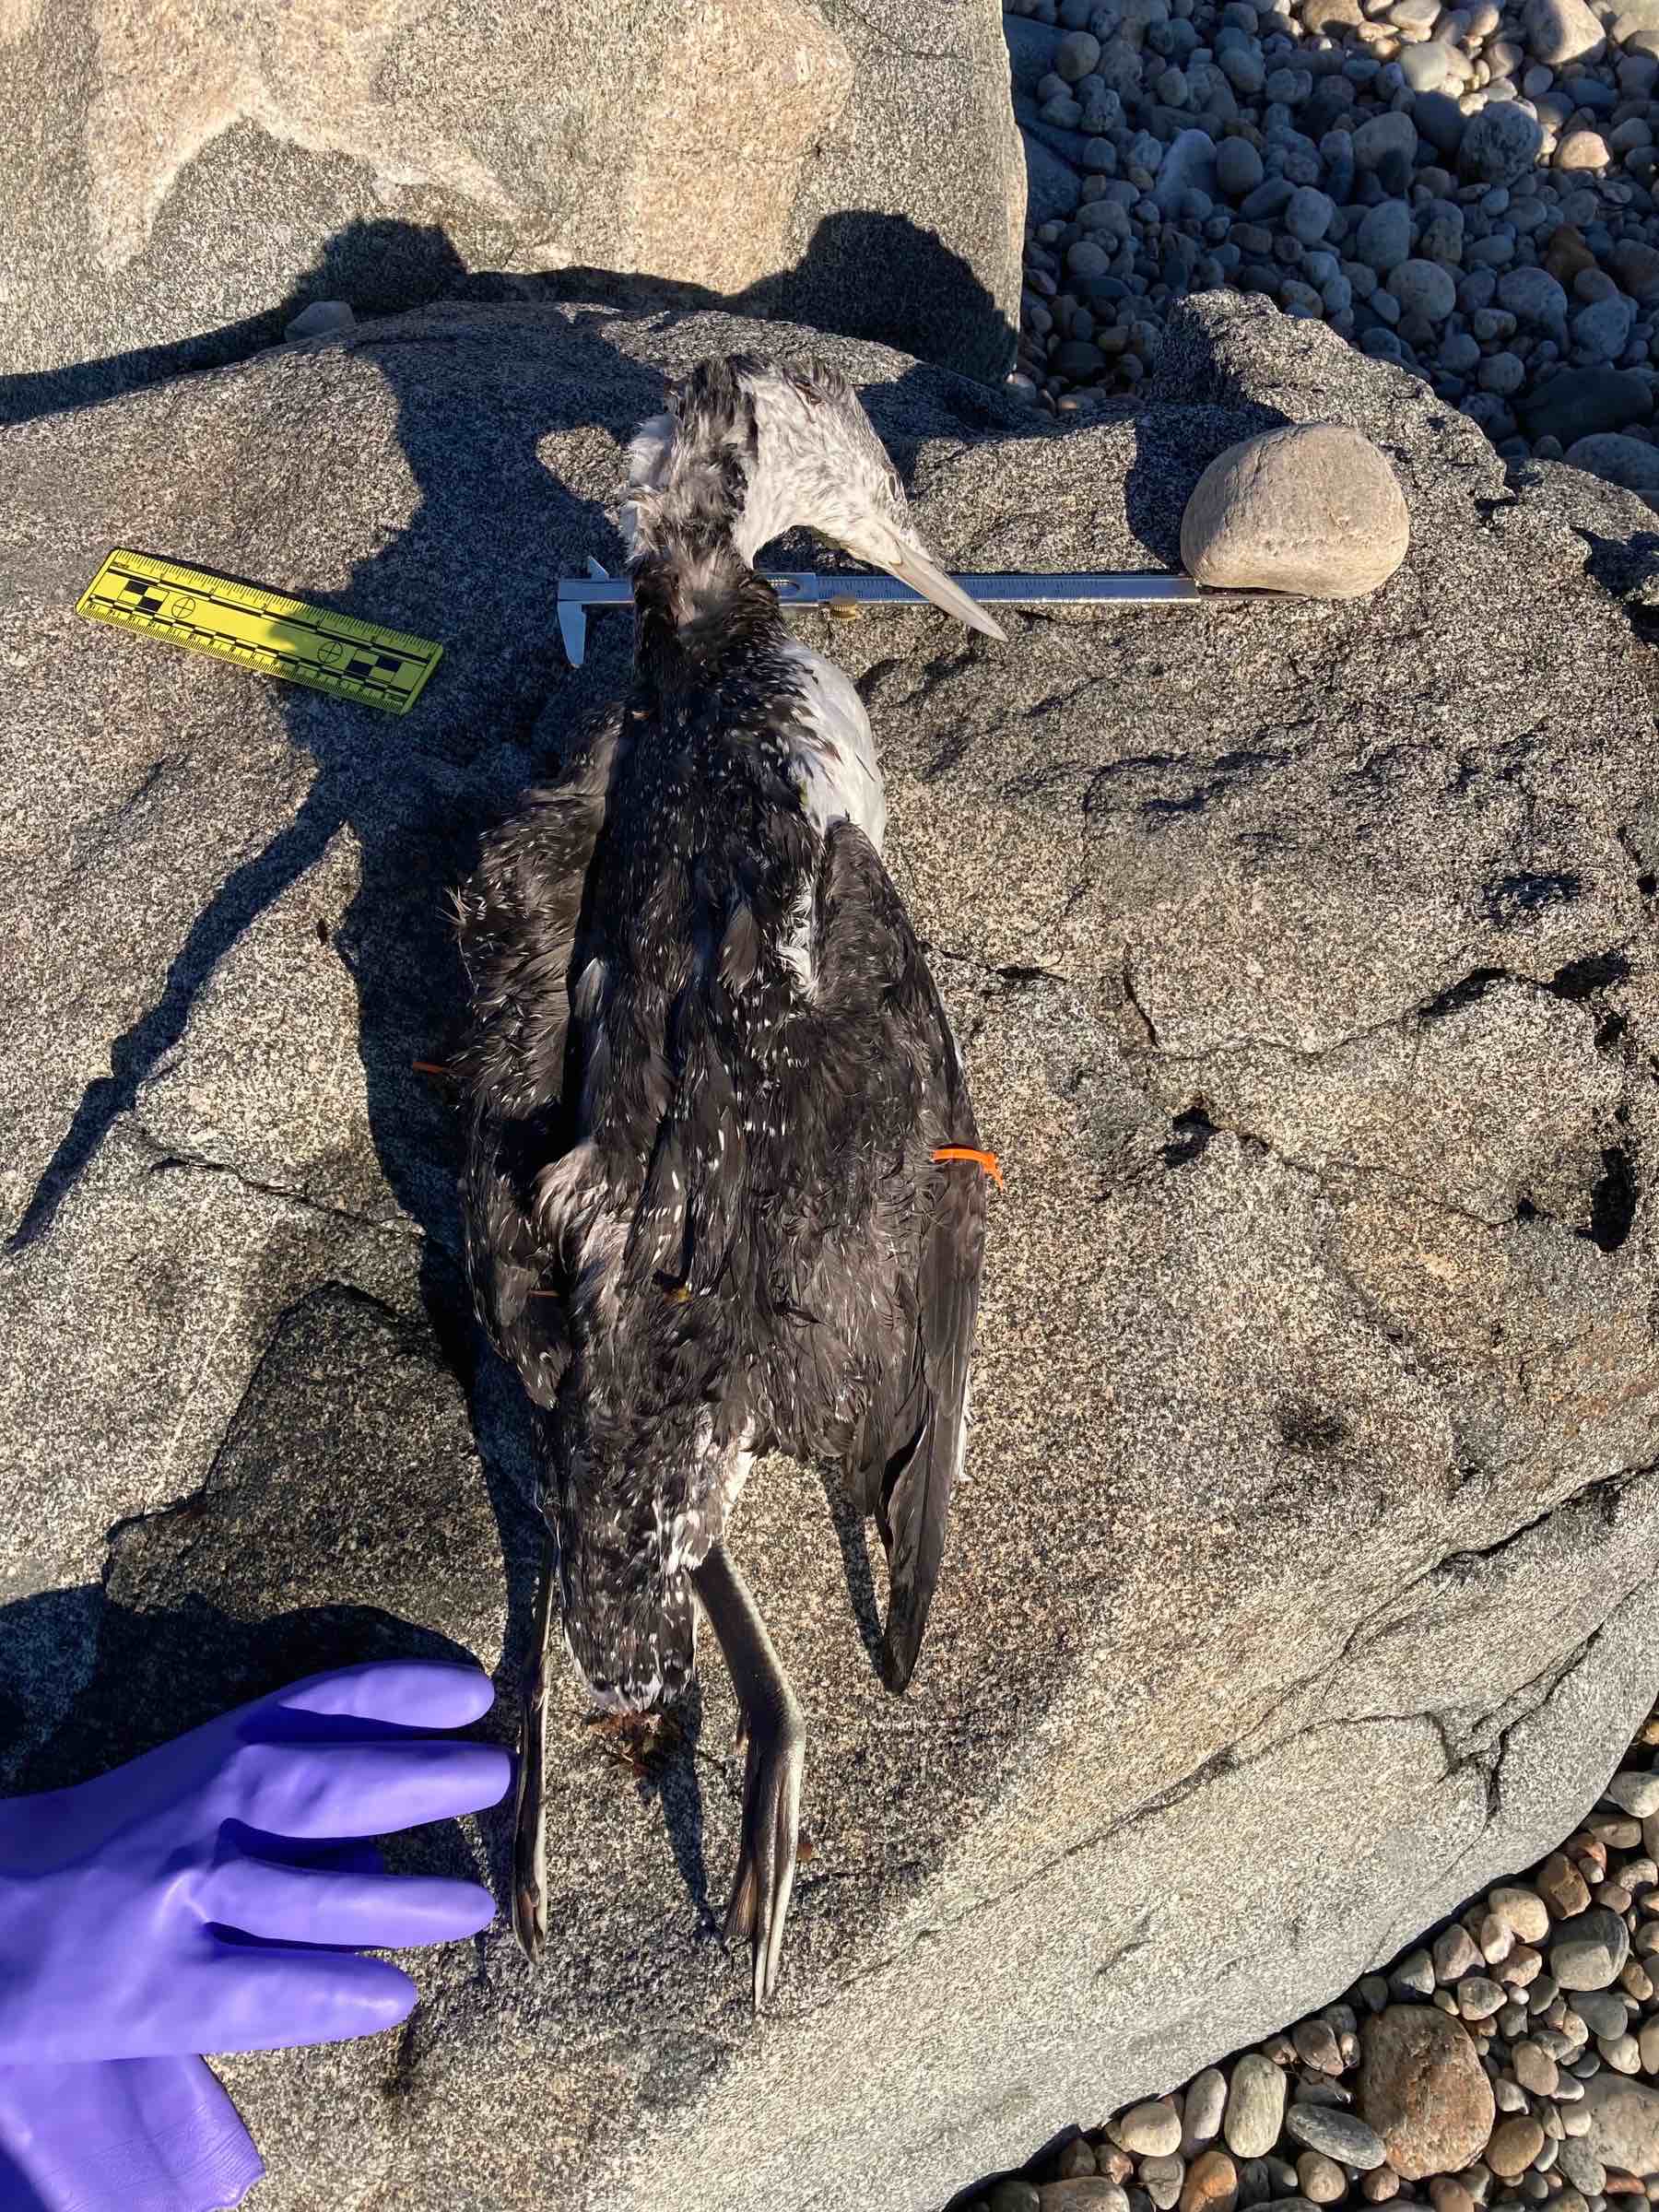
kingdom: Animalia
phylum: Chordata
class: Aves
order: Gaviiformes
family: Gaviidae
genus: Gavia
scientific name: Gavia stellata
